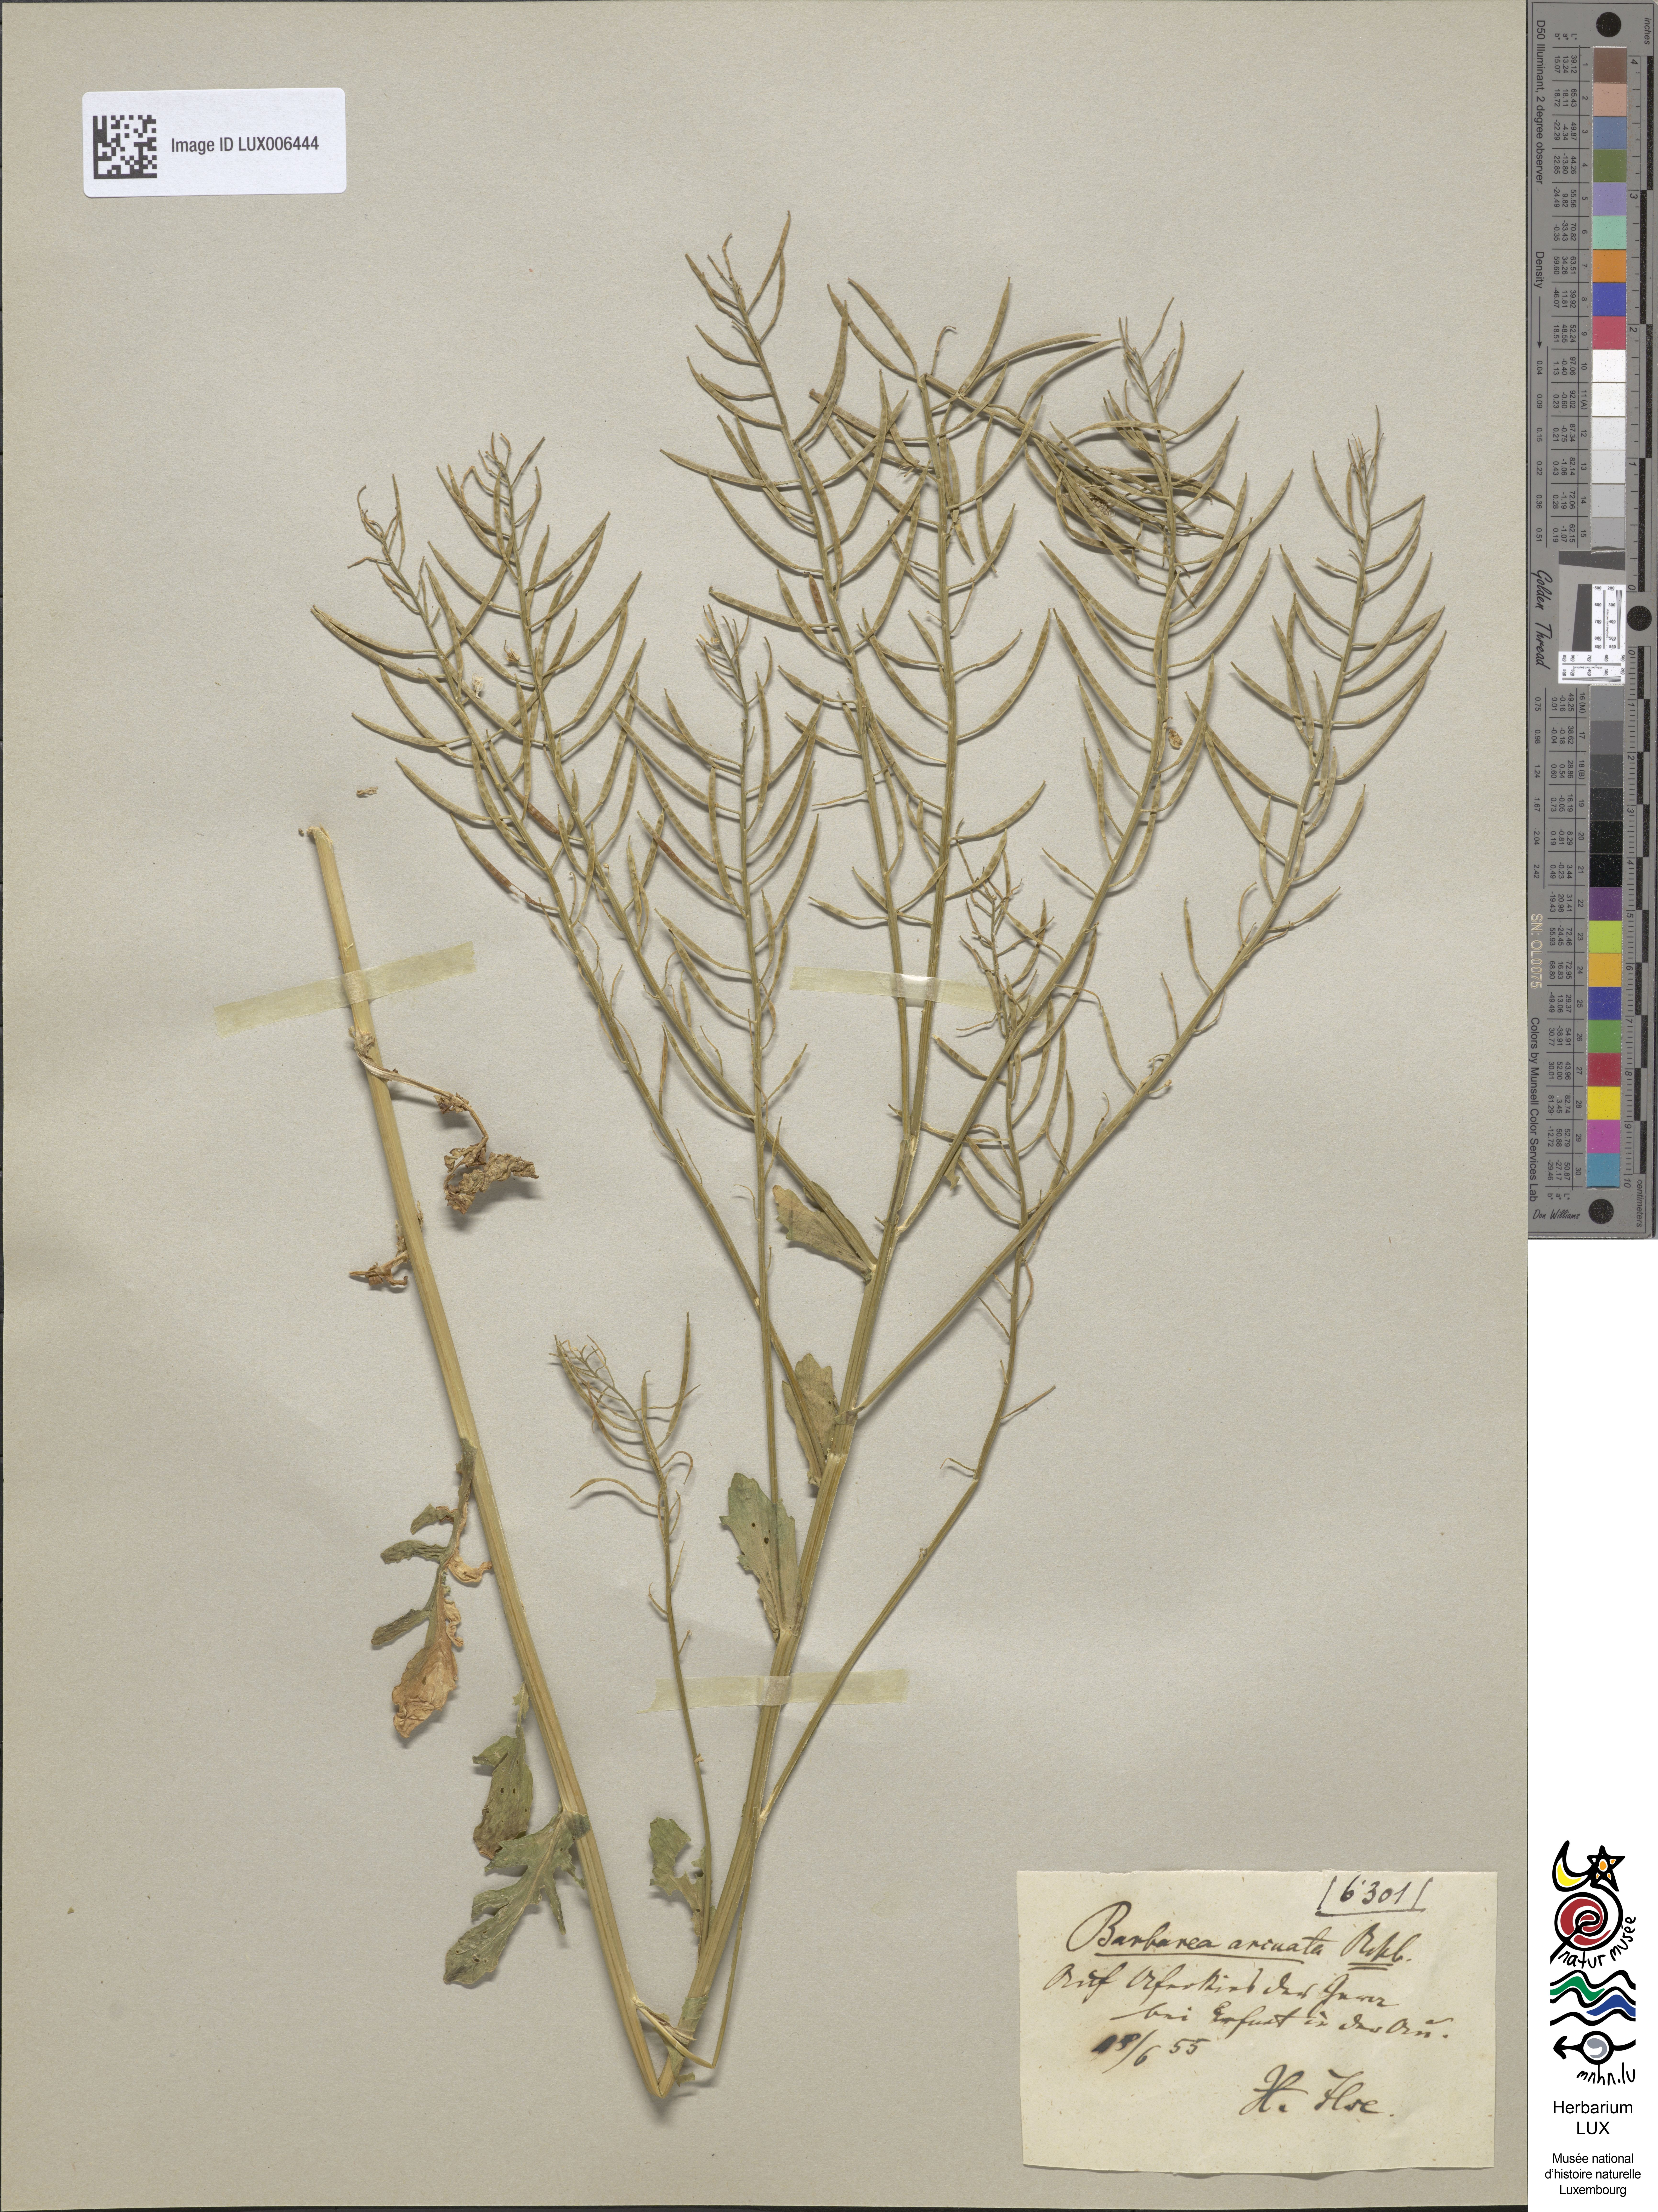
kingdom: Plantae
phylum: Tracheophyta
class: Magnoliopsida
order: Brassicales
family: Brassicaceae
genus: Barbarea
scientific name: Barbarea vulgaris
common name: Cressy-greens
